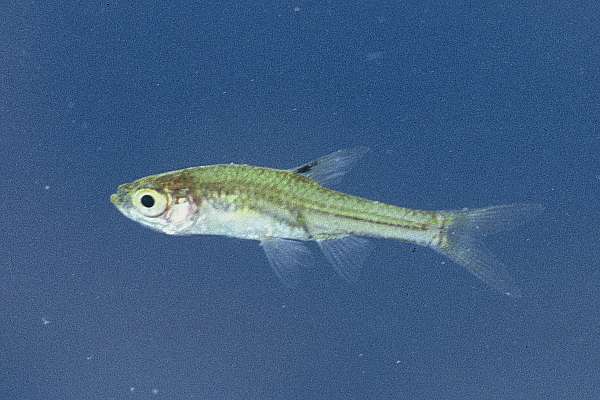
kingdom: Animalia
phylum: Chordata
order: Cypriniformes
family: Cyprinidae
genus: Coptostomabarbus
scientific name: Coptostomabarbus wittei
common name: Upjaw barb
